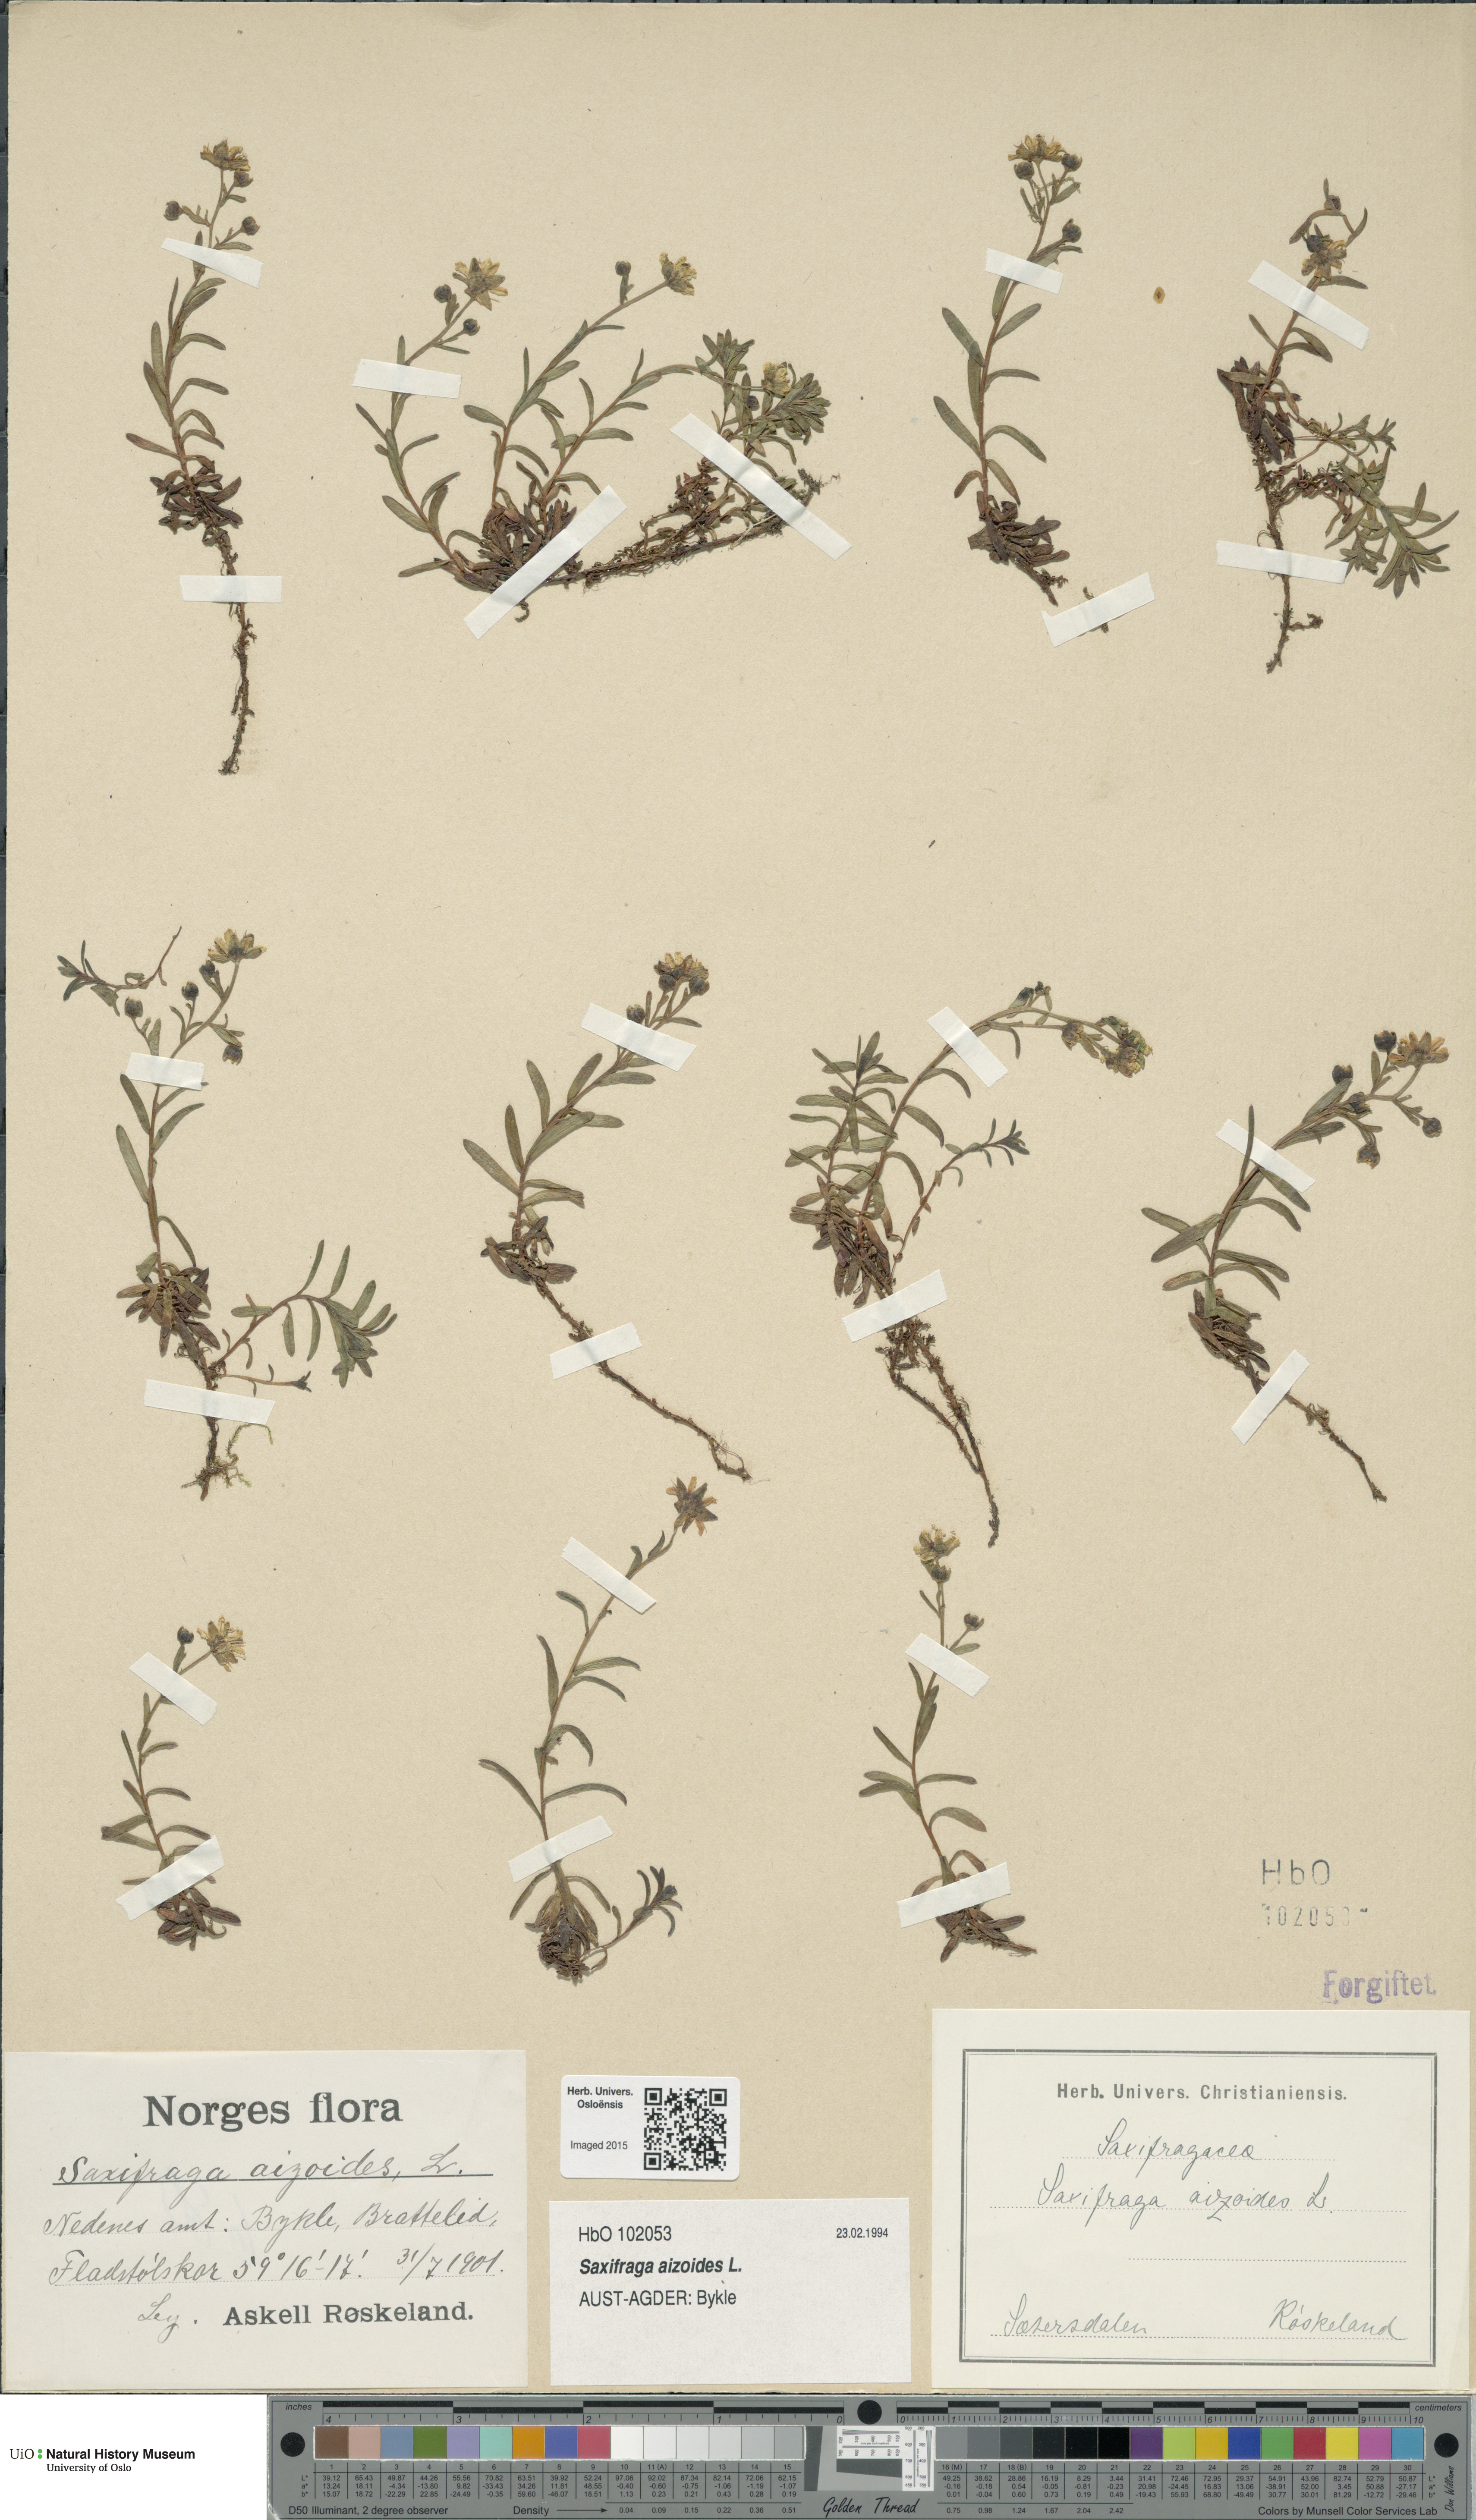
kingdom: Plantae
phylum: Tracheophyta
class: Magnoliopsida
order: Saxifragales
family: Saxifragaceae
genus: Saxifraga
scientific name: Saxifraga aizoides
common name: Yellow mountain saxifrage
